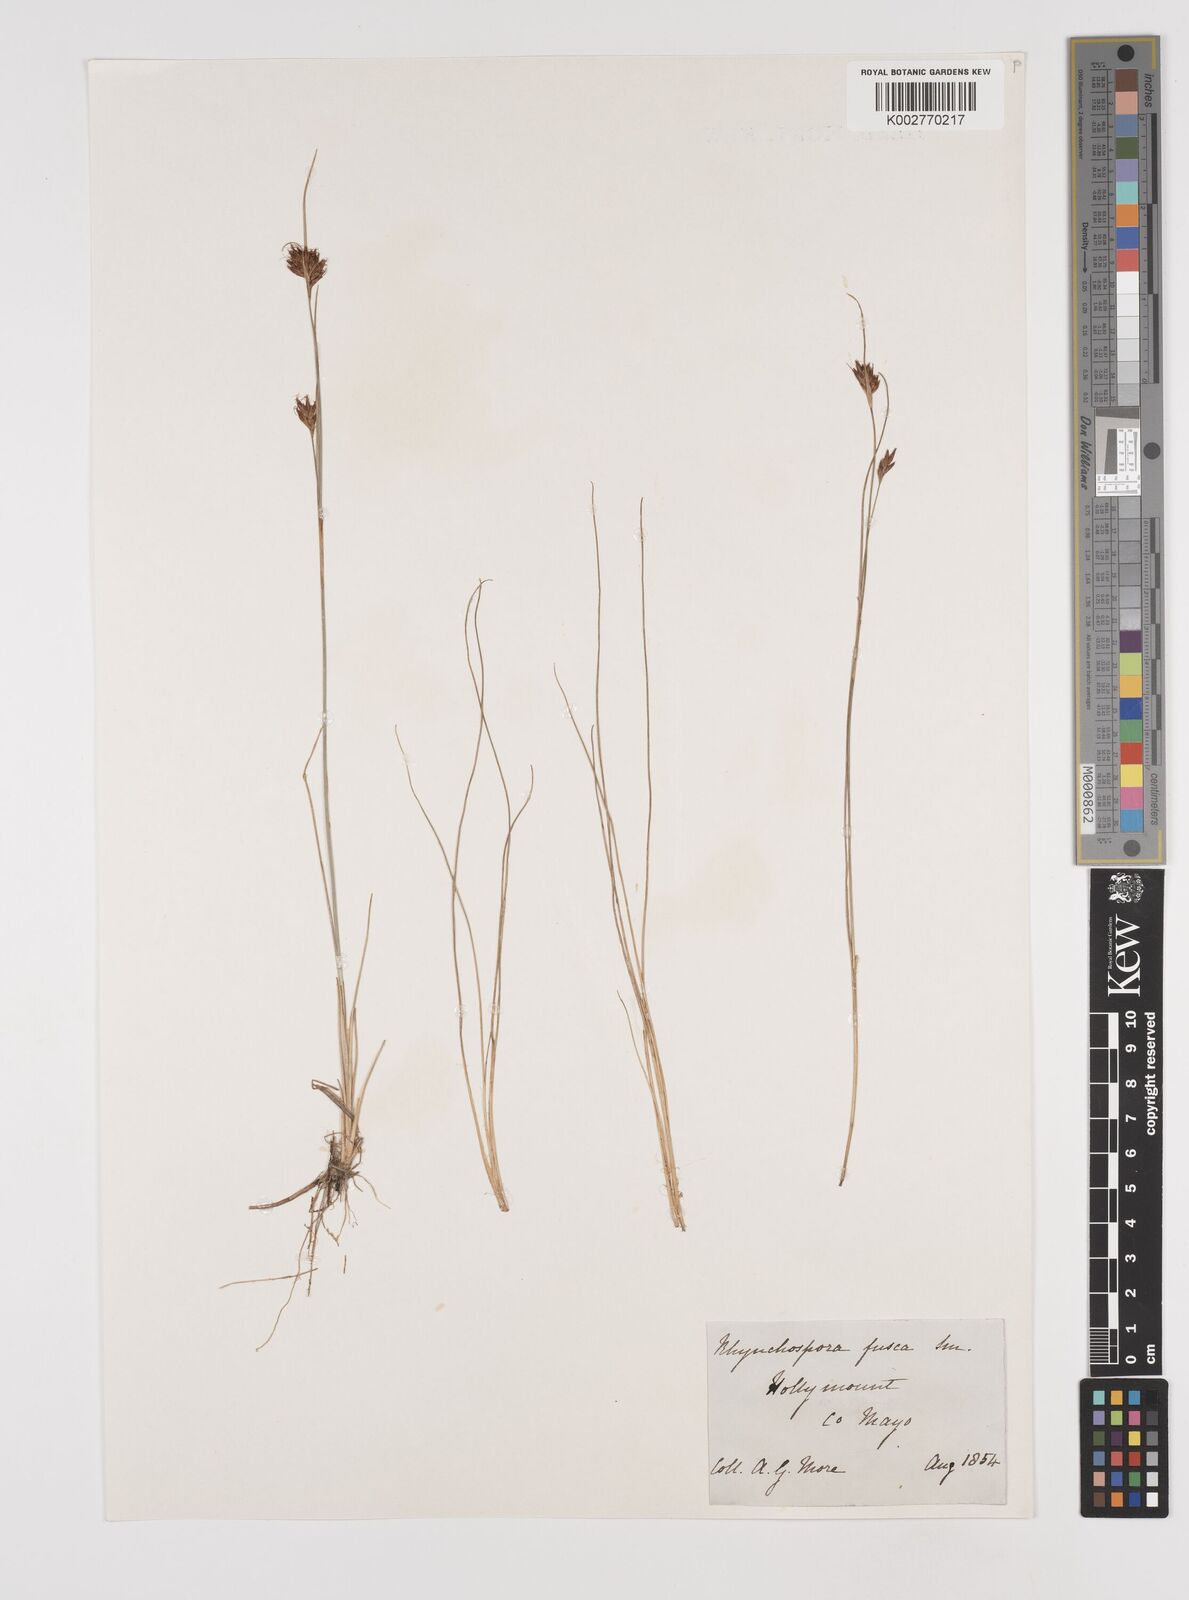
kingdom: Plantae
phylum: Tracheophyta
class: Liliopsida
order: Poales
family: Cyperaceae
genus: Rhynchospora
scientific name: Rhynchospora fusca
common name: Brown beak-sedge
